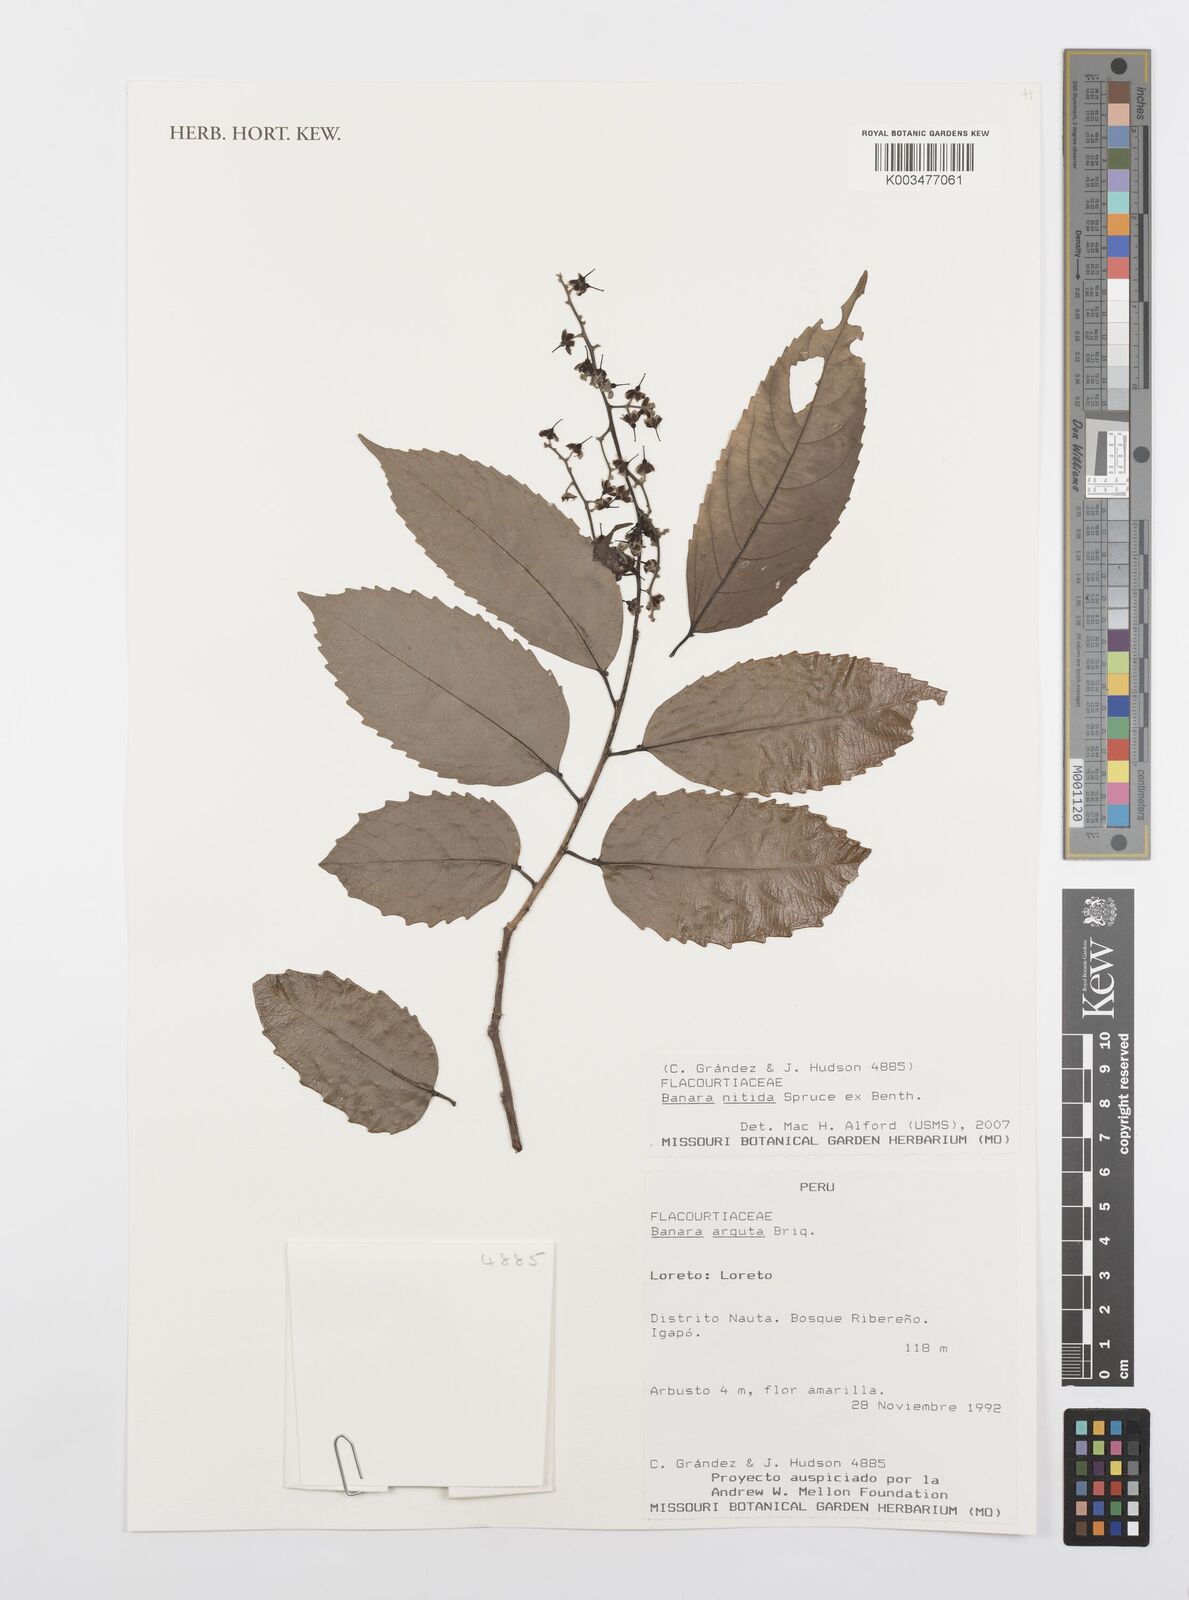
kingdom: Plantae
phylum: Tracheophyta
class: Magnoliopsida
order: Malpighiales
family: Salicaceae
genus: Banara
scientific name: Banara nitida
